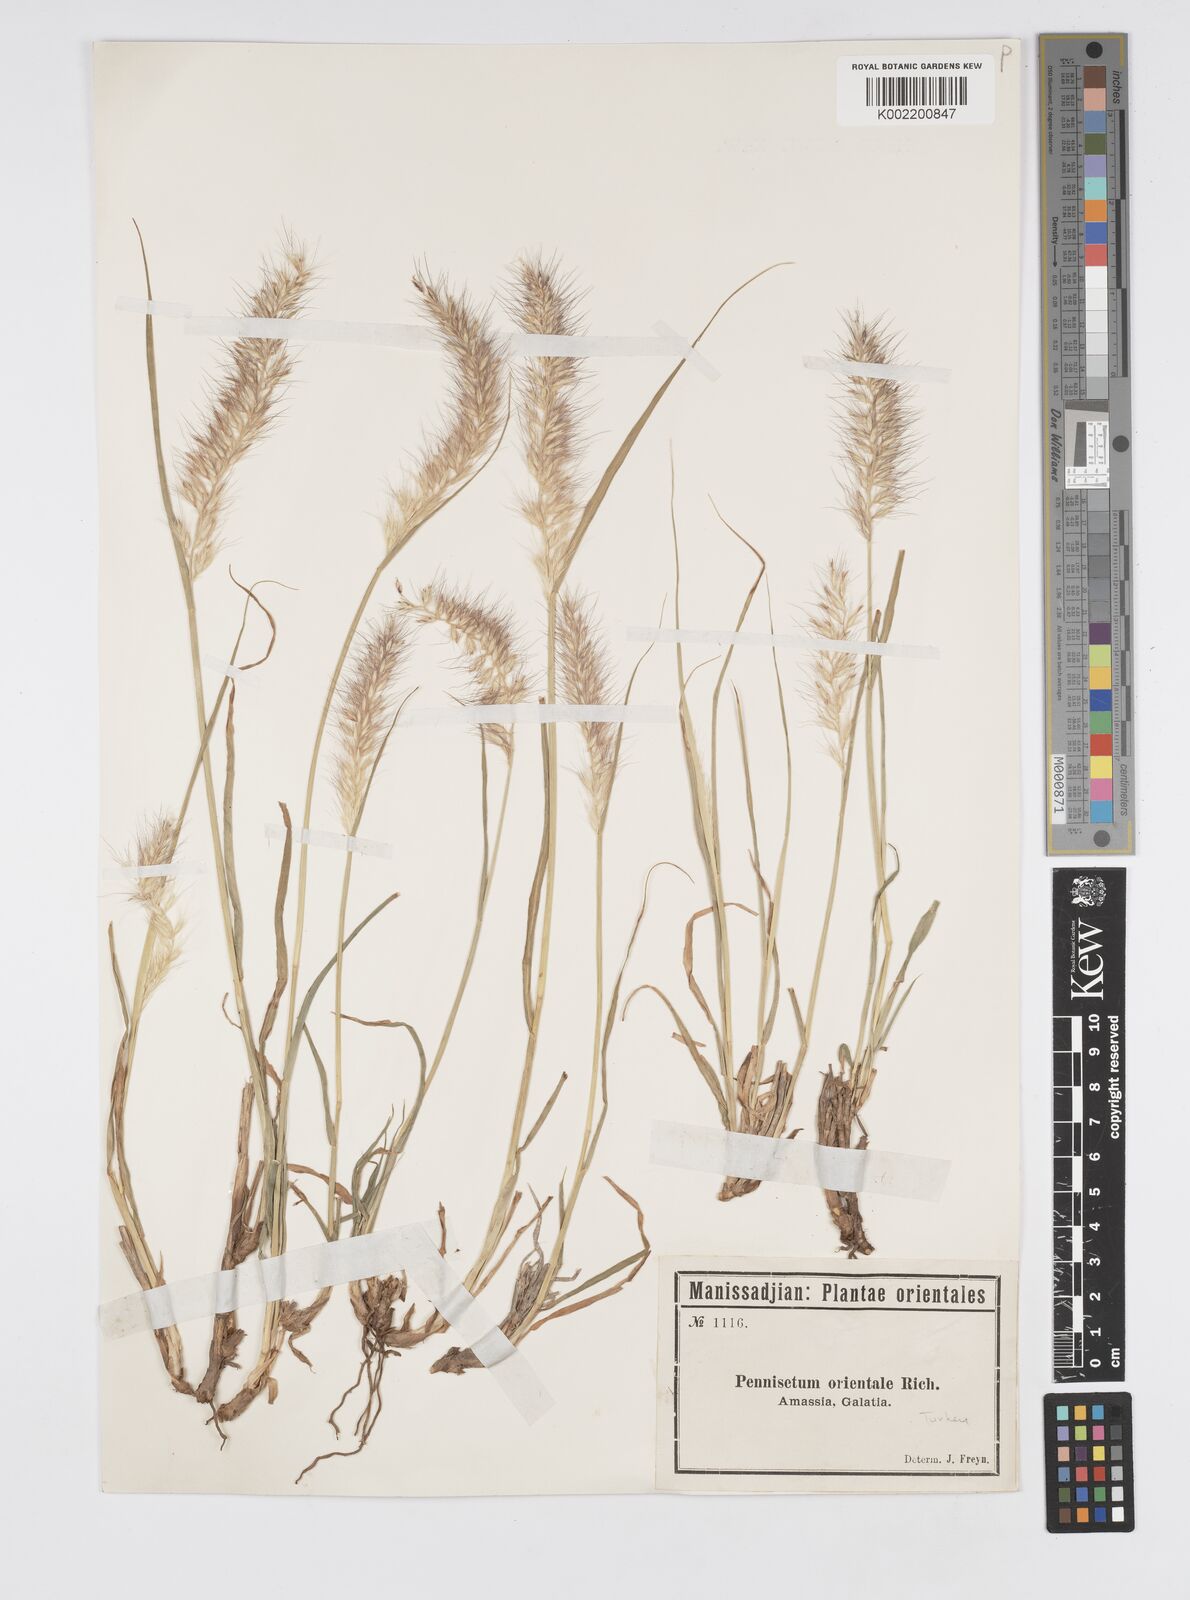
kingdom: Plantae
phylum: Tracheophyta
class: Liliopsida
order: Poales
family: Poaceae
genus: Cenchrus
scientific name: Cenchrus orientalis
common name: Oriental fountain grass
